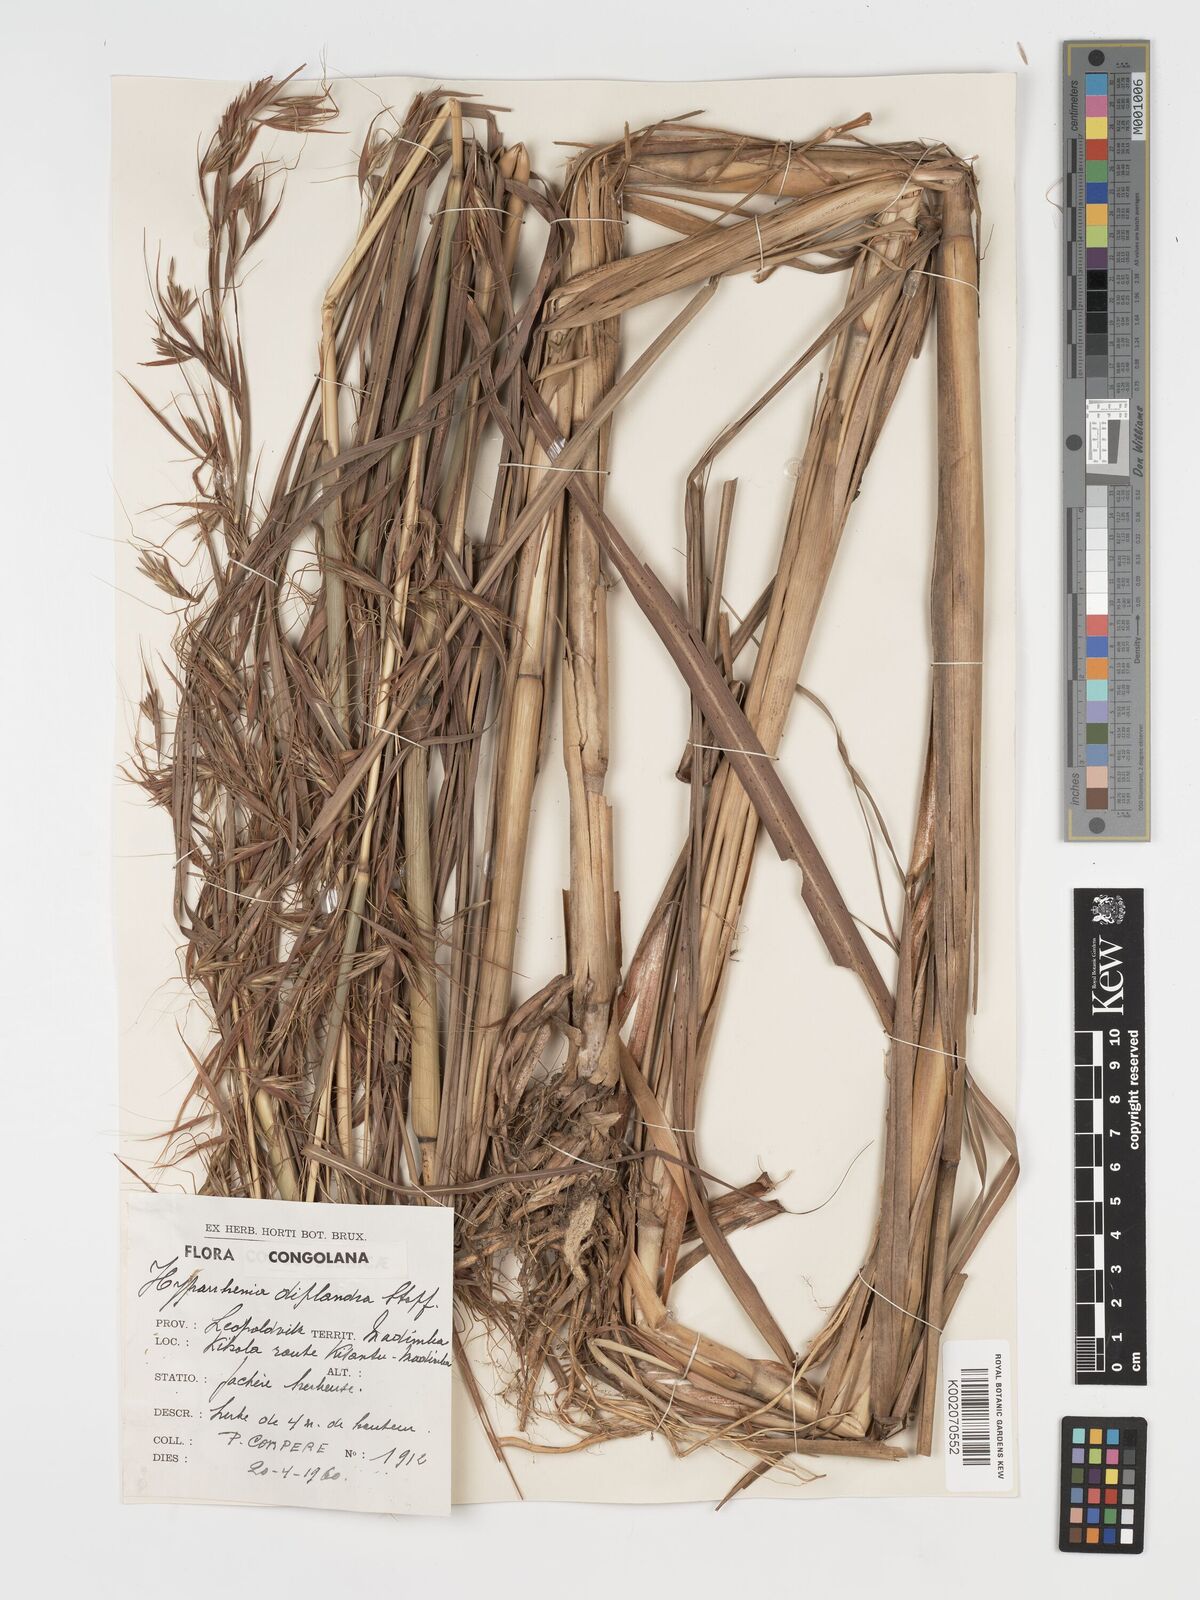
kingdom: Plantae
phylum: Tracheophyta
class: Liliopsida
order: Poales
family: Poaceae
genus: Hyparrhenia
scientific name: Hyparrhenia diplandra
